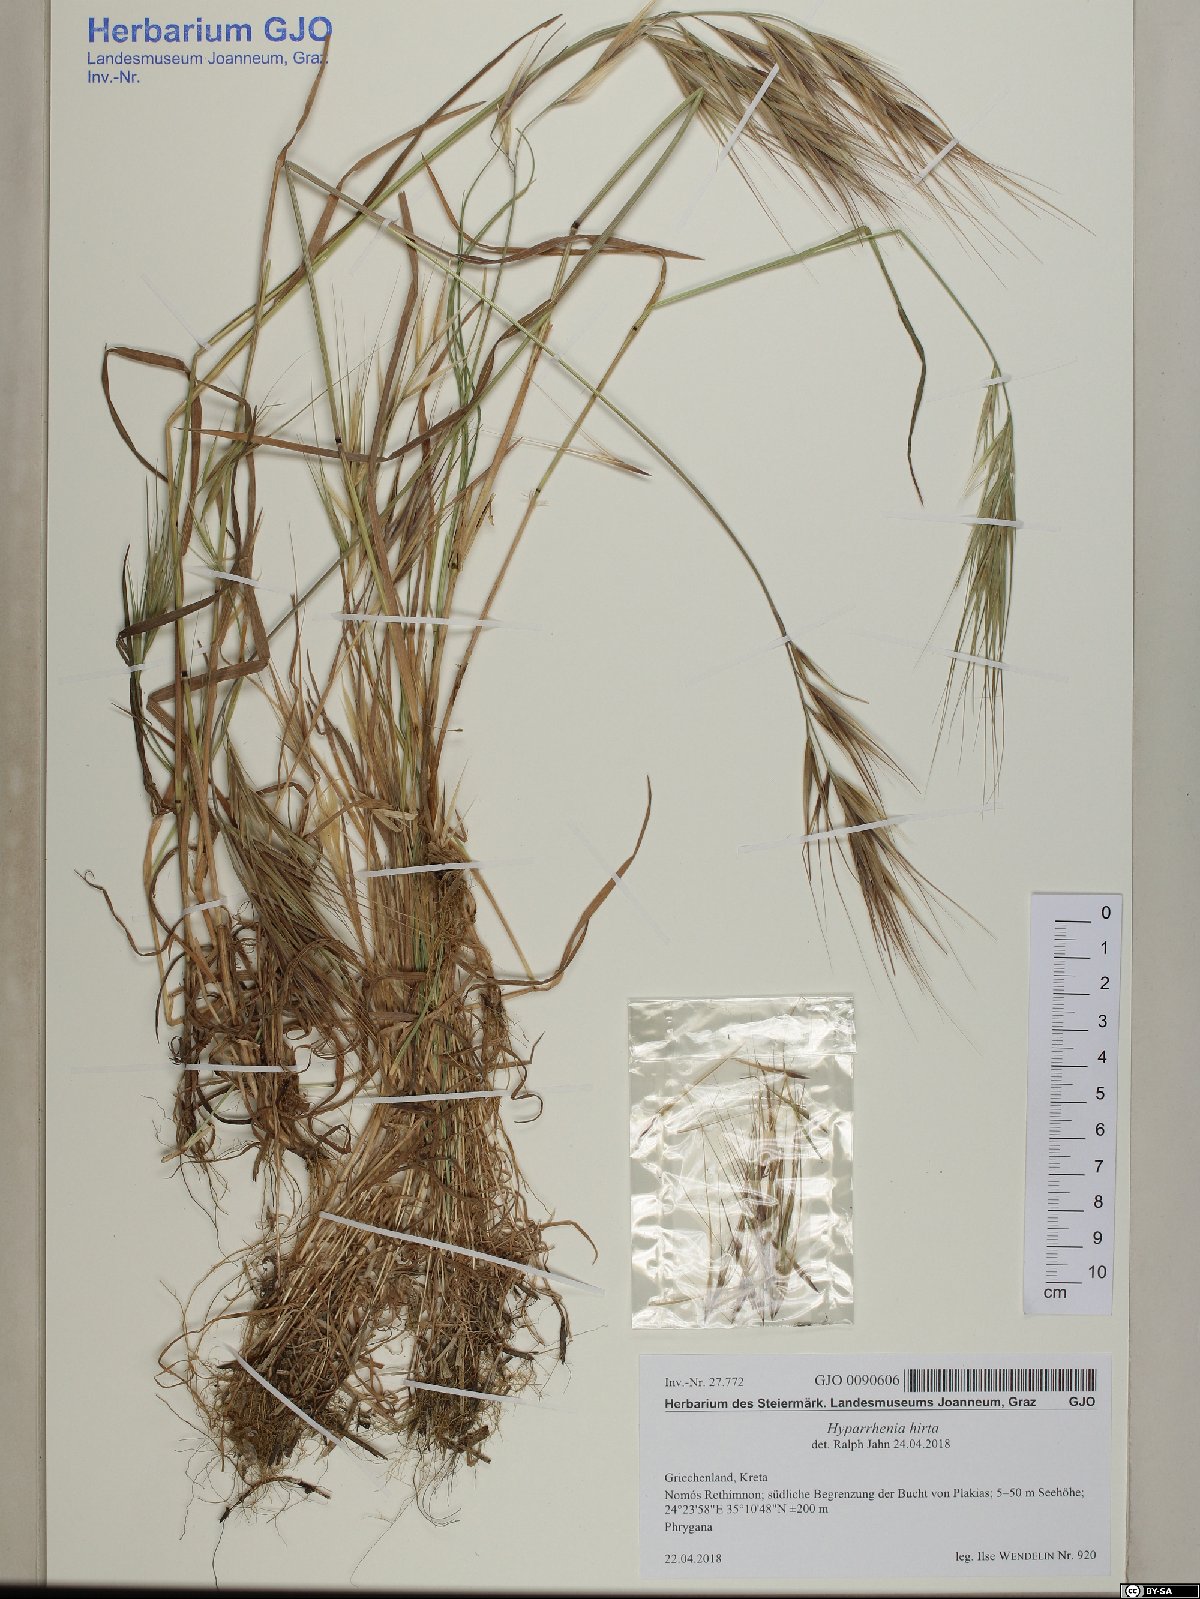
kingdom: Plantae
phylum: Tracheophyta
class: Liliopsida
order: Poales
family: Poaceae
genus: Hyparrhenia
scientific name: Hyparrhenia hirta
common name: Thatching grass
